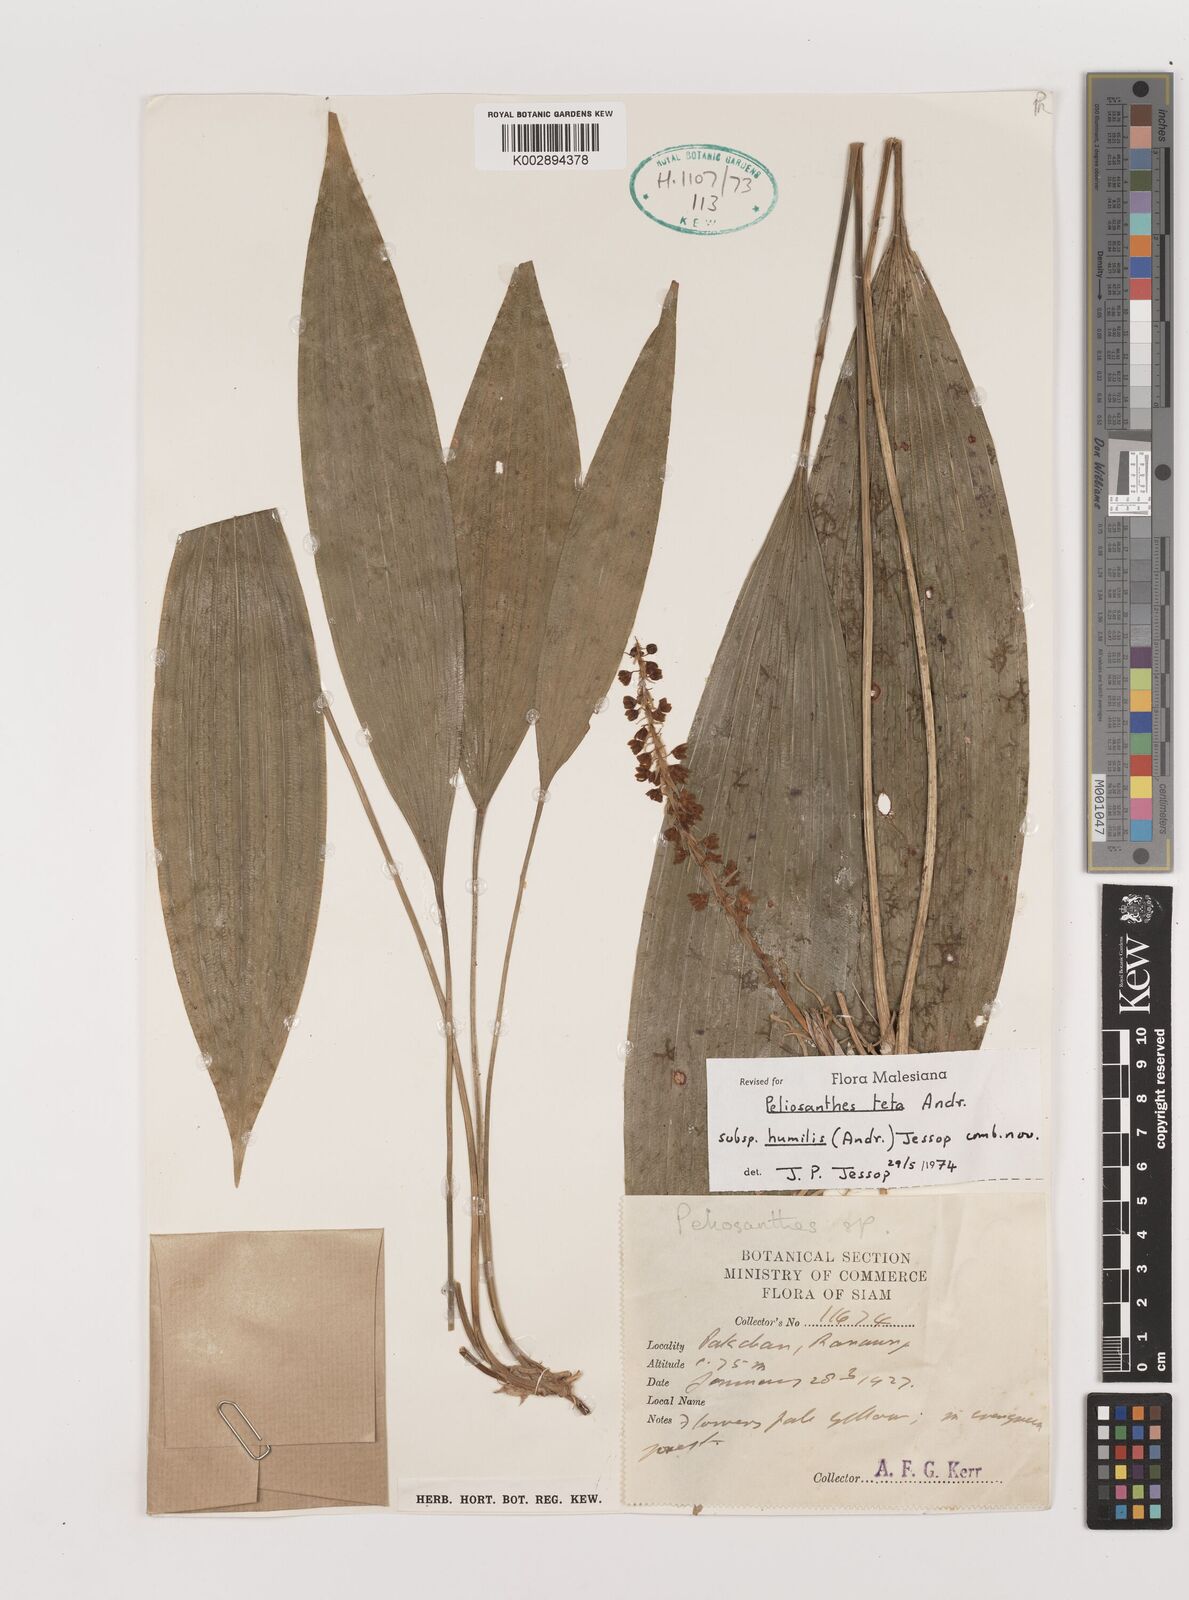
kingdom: Plantae
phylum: Tracheophyta
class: Liliopsida
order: Asparagales
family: Asparagaceae
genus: Peliosanthes
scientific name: Peliosanthes teta
